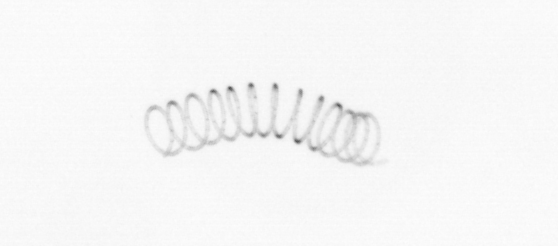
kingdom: Chromista
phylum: Ochrophyta
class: Bacillariophyceae
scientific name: Bacillariophyceae
